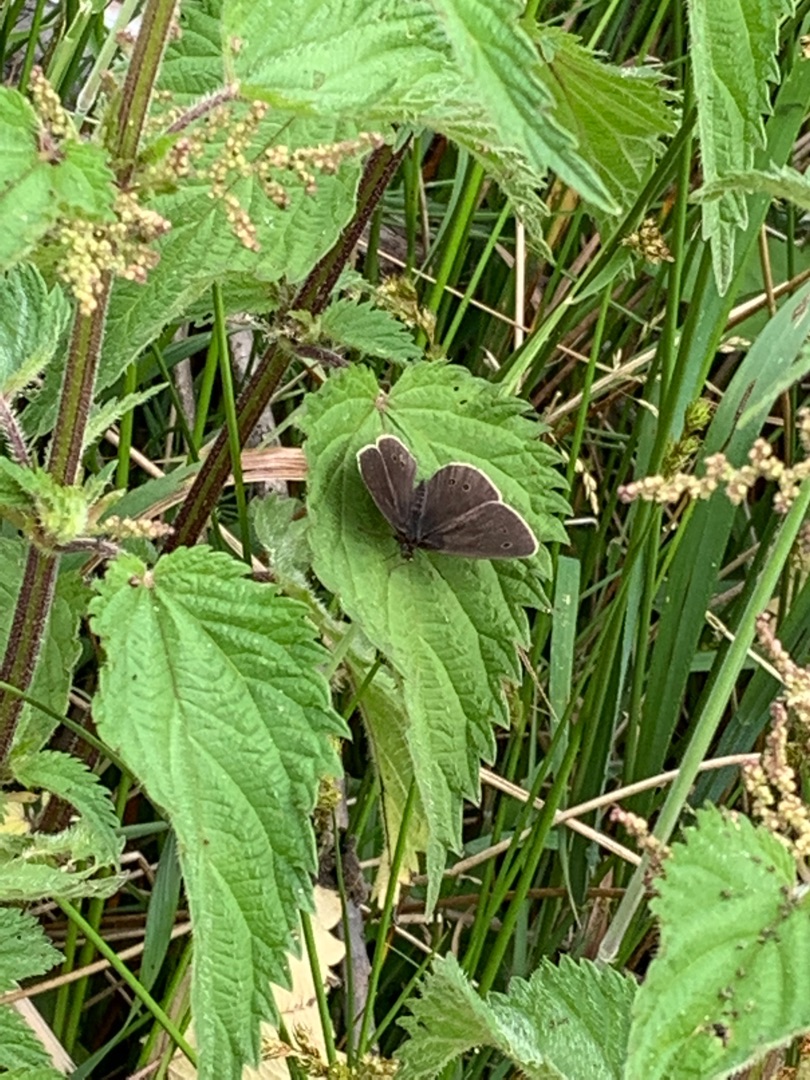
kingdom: Animalia
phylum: Arthropoda
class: Insecta
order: Lepidoptera
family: Nymphalidae
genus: Aphantopus
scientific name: Aphantopus hyperantus
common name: Engrandøje
